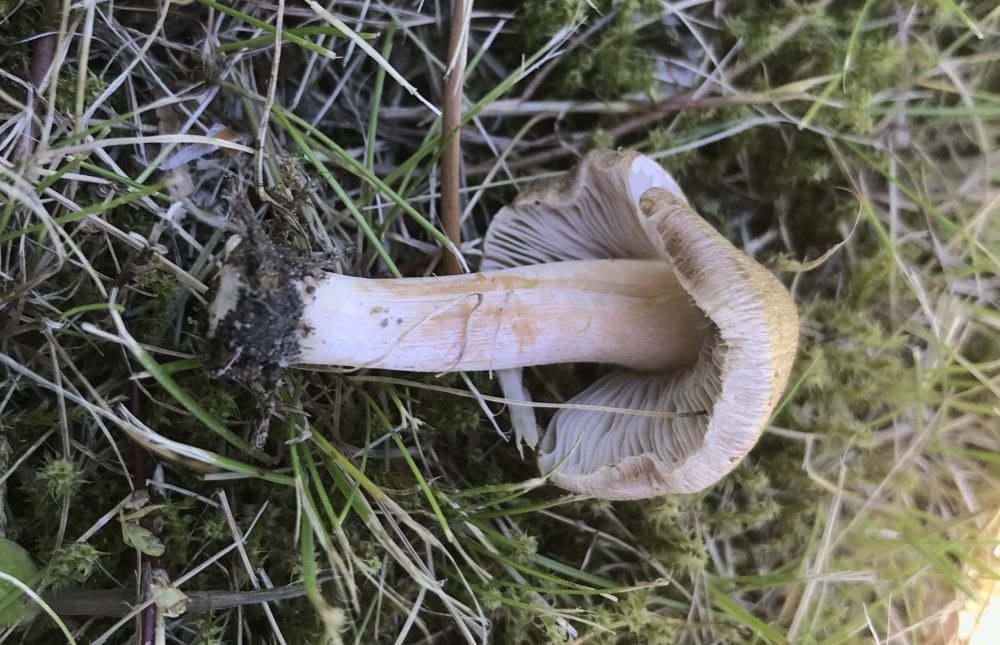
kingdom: Fungi
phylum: Basidiomycota
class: Agaricomycetes
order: Agaricales
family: Inocybaceae
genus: Inocybe
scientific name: Inocybe
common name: trævlhat
